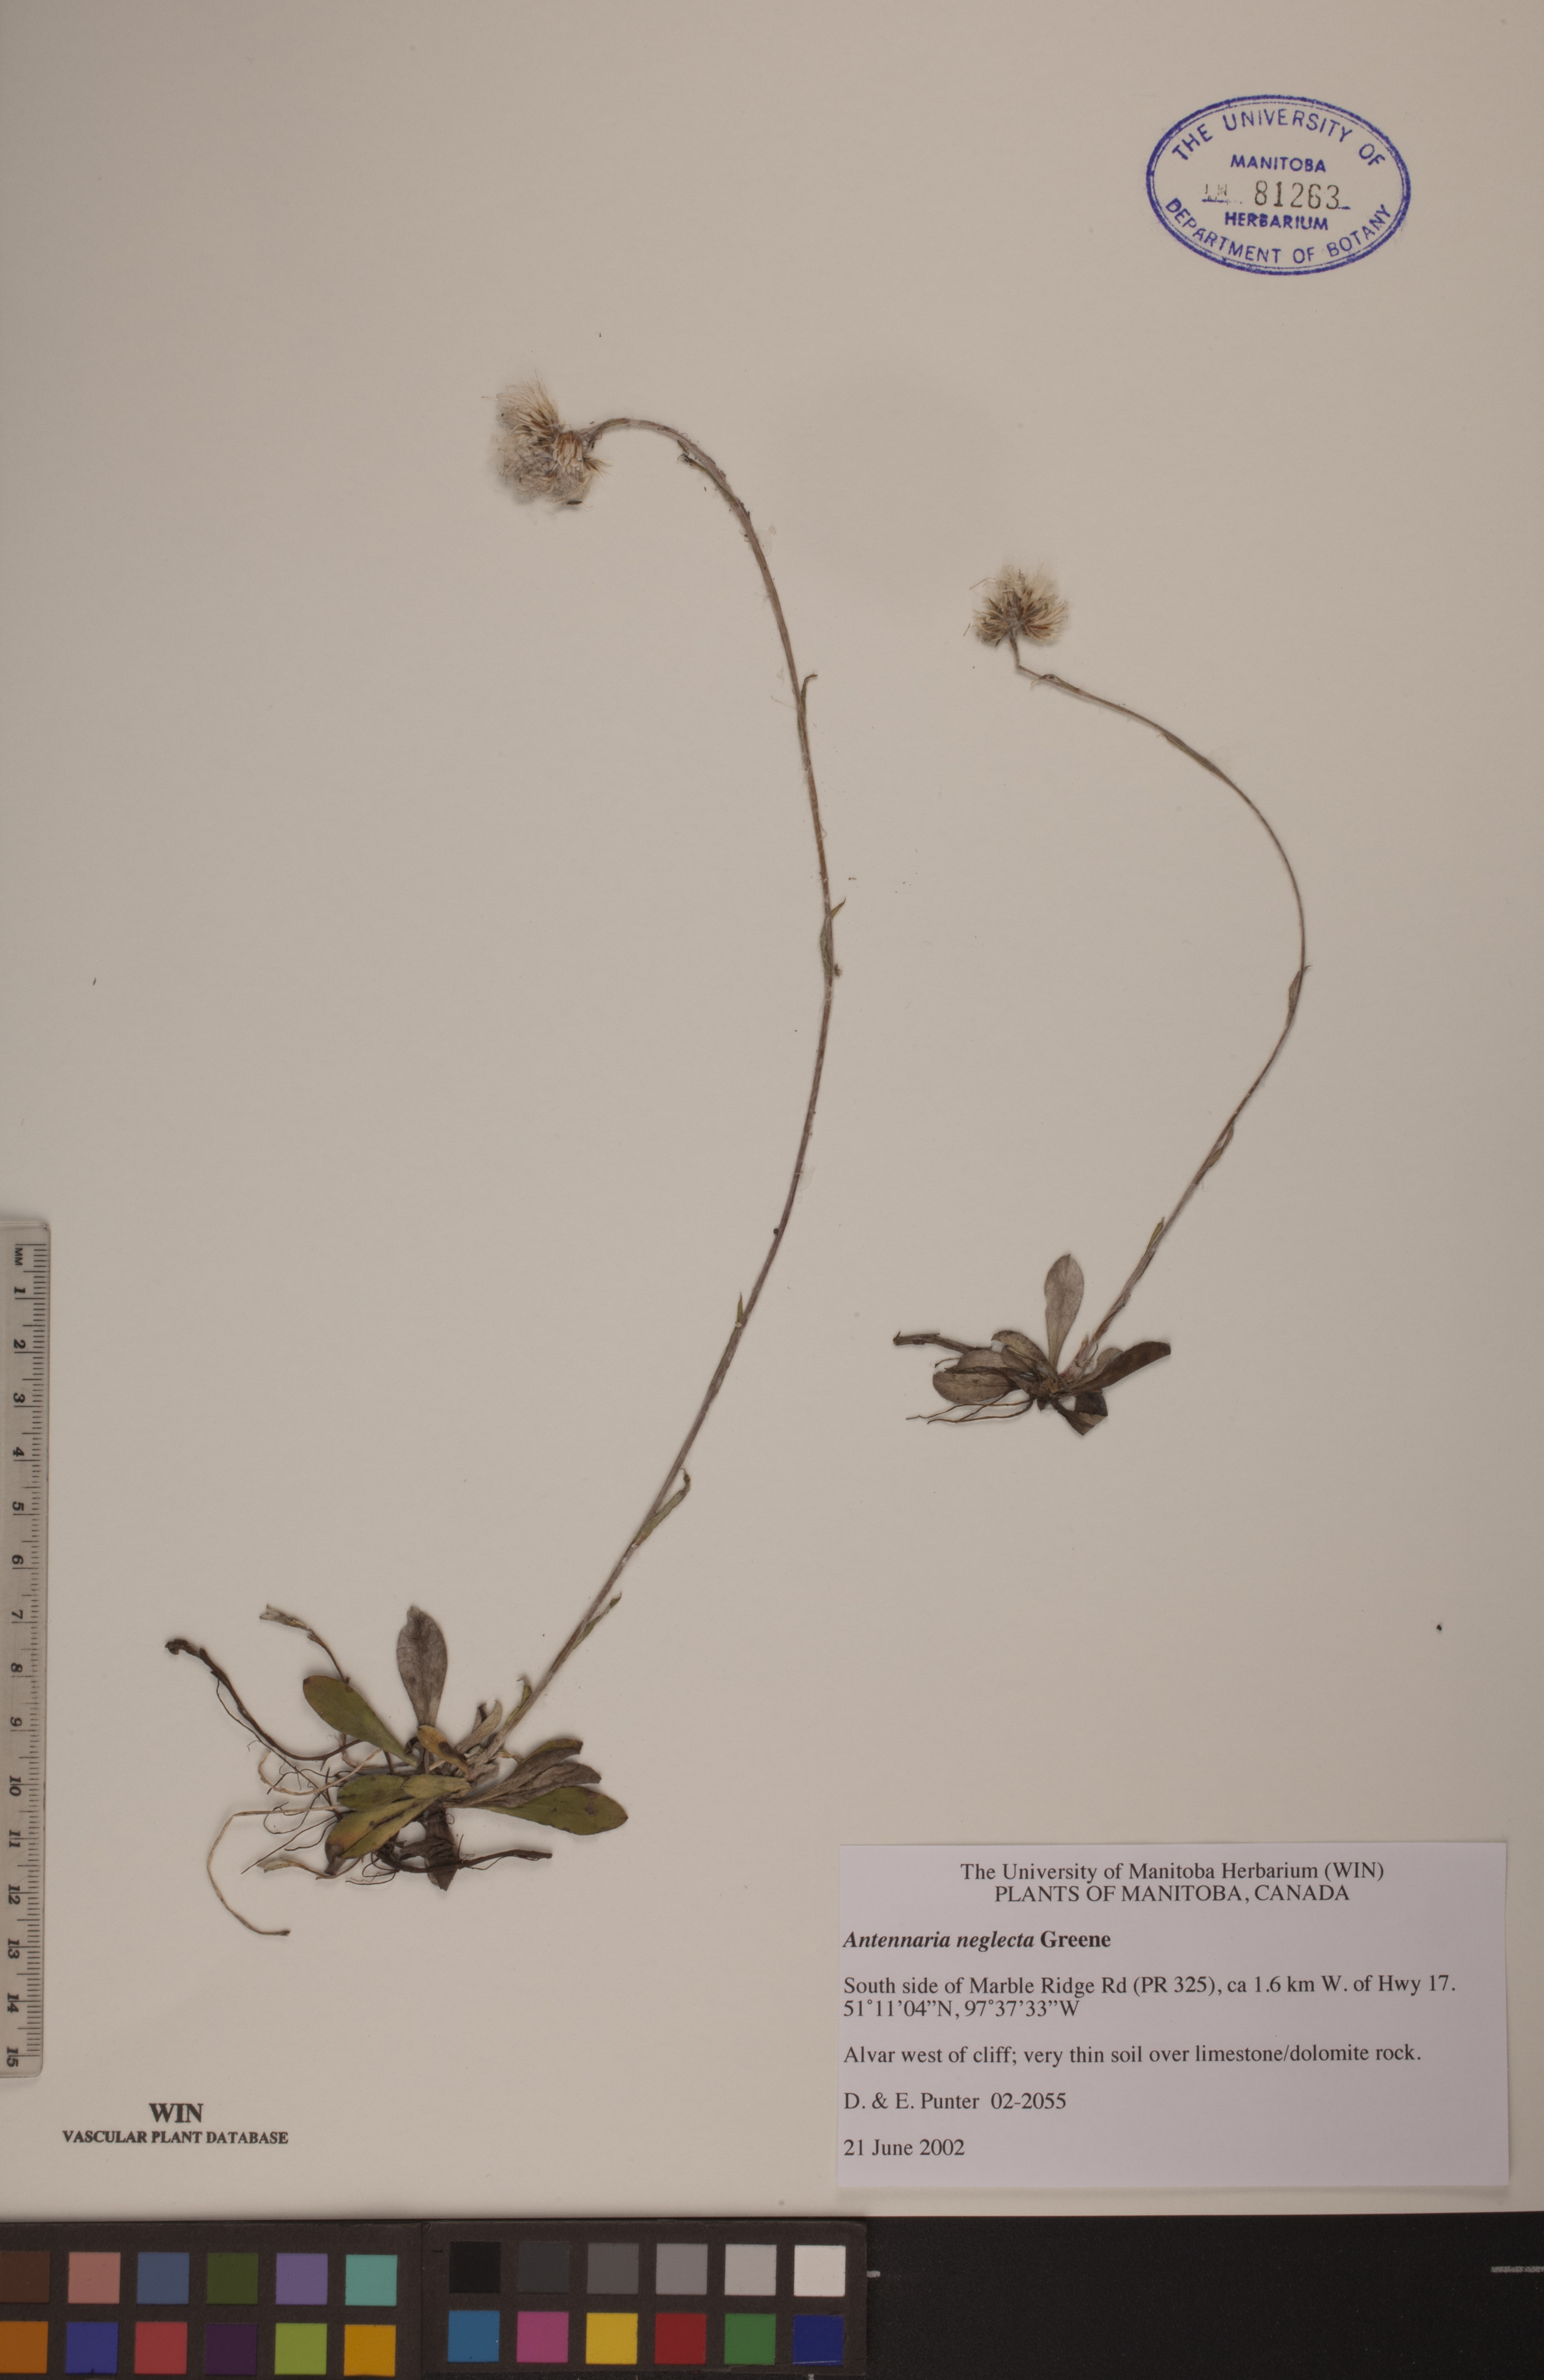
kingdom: Plantae
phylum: Tracheophyta
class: Magnoliopsida
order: Asterales
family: Asteraceae
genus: Antennaria
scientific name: Antennaria neglecta
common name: Field pussytoes
